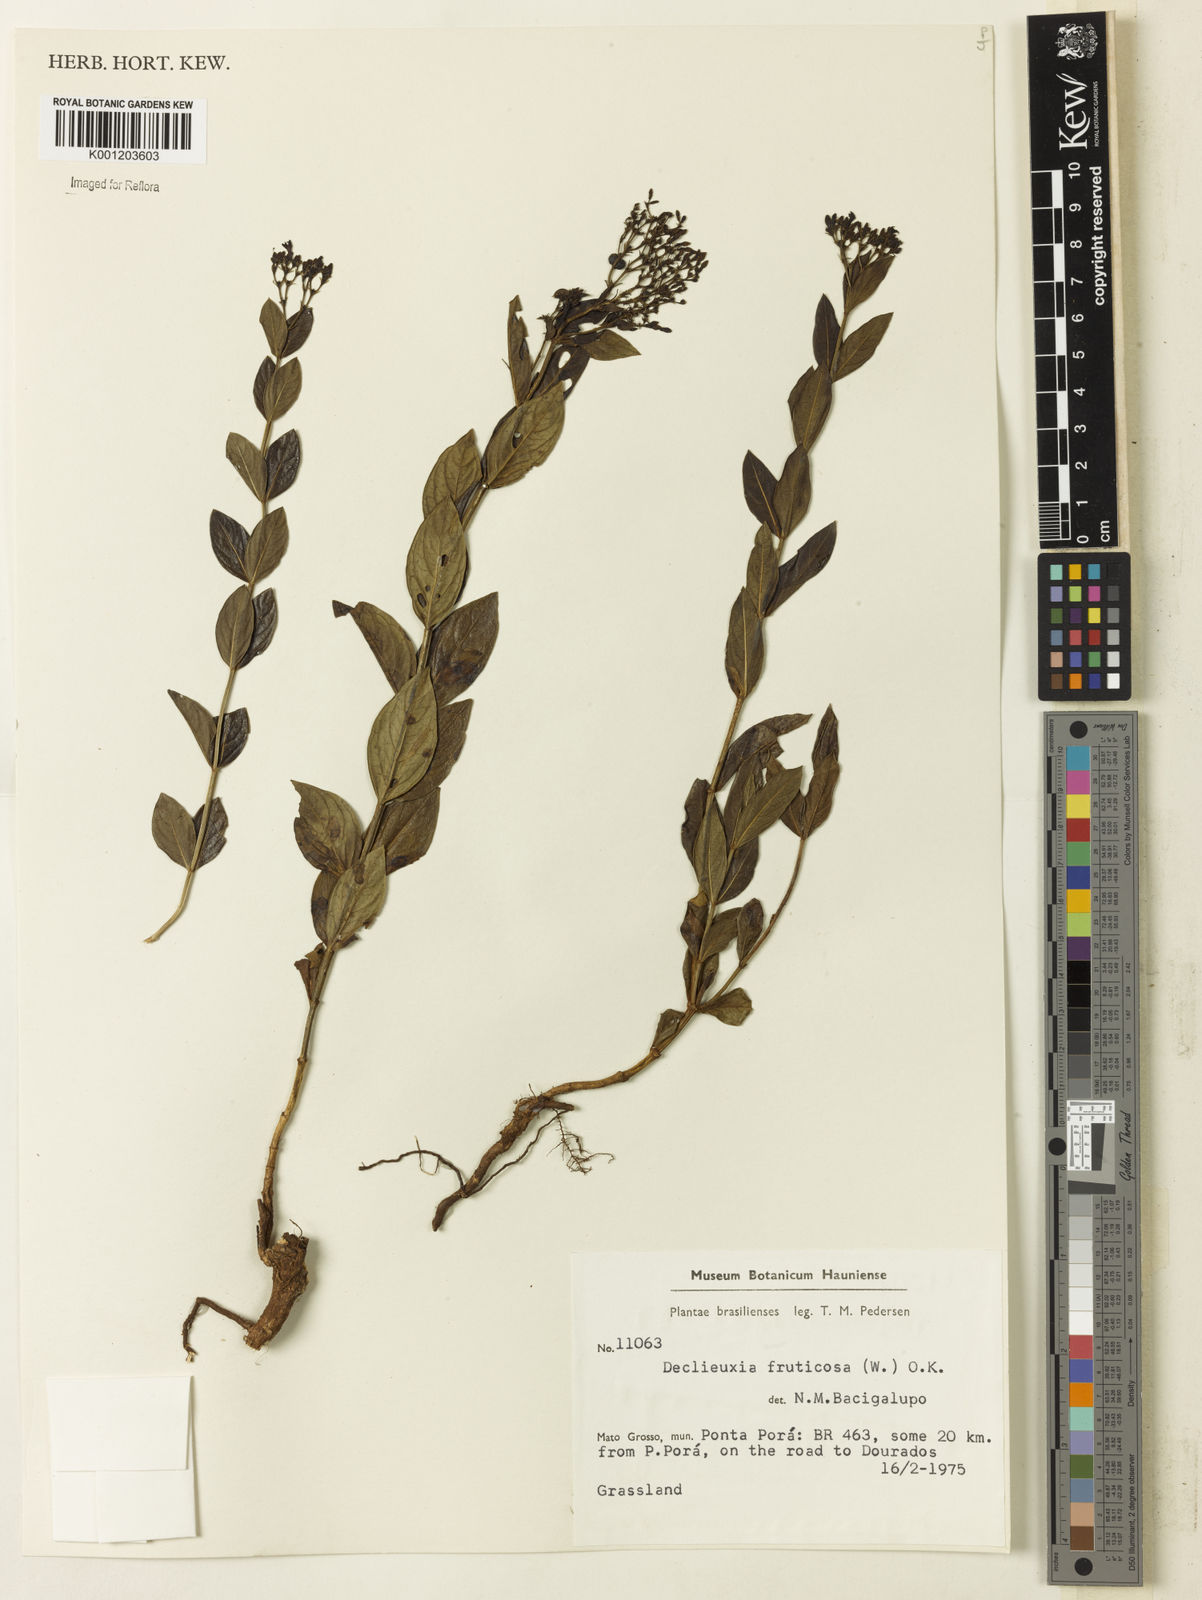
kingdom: Plantae
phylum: Tracheophyta
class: Magnoliopsida
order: Gentianales
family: Rubiaceae
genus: Declieuxia
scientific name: Declieuxia fruticosa
